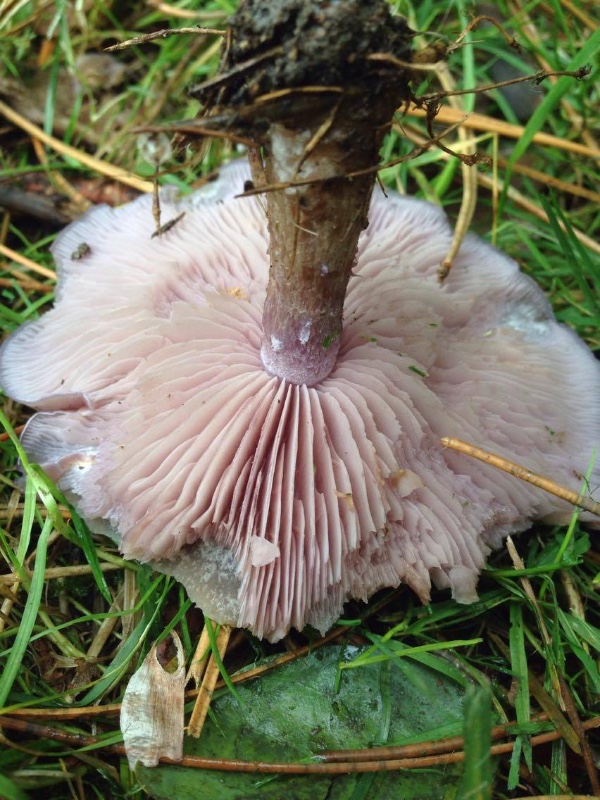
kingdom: Fungi
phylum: Basidiomycota
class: Agaricomycetes
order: Agaricales
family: Tricholomataceae
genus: Lepista
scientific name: Lepista nuda
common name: violet hekseringshat
